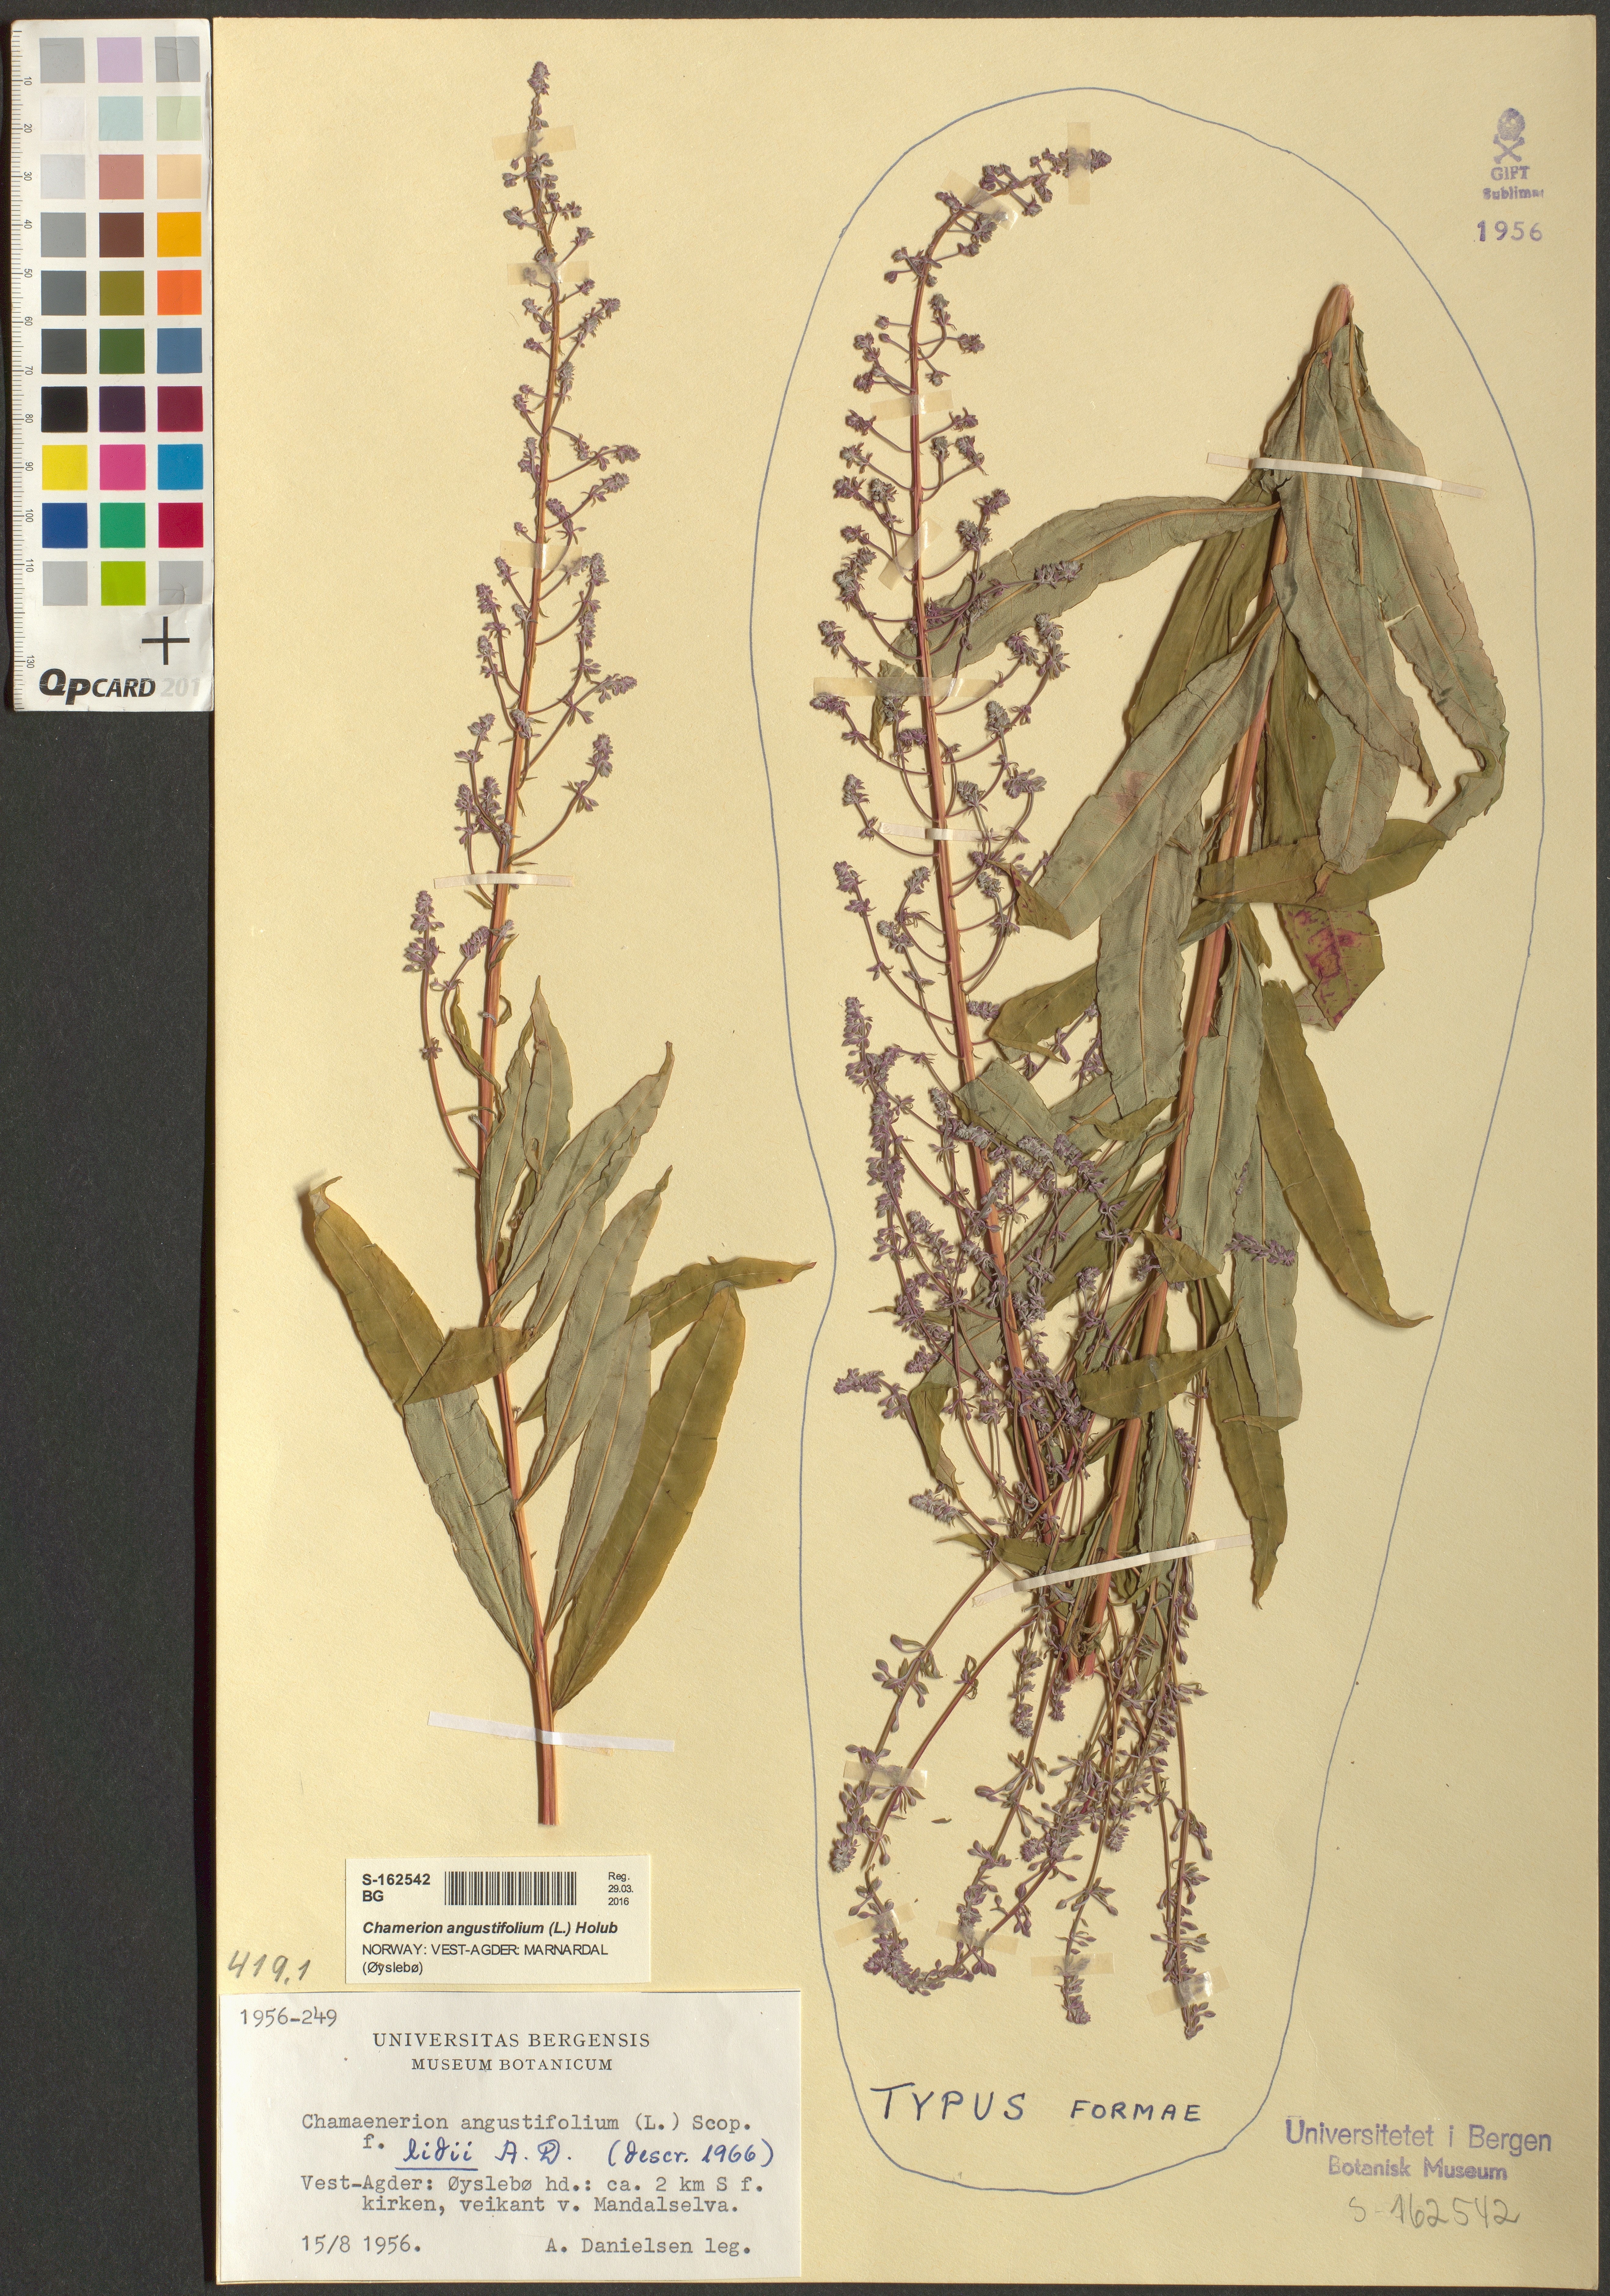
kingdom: Plantae
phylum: Tracheophyta
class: Magnoliopsida
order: Myrtales
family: Onagraceae
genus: Chamaenerion
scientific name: Chamaenerion angustifolium
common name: Fireweed
